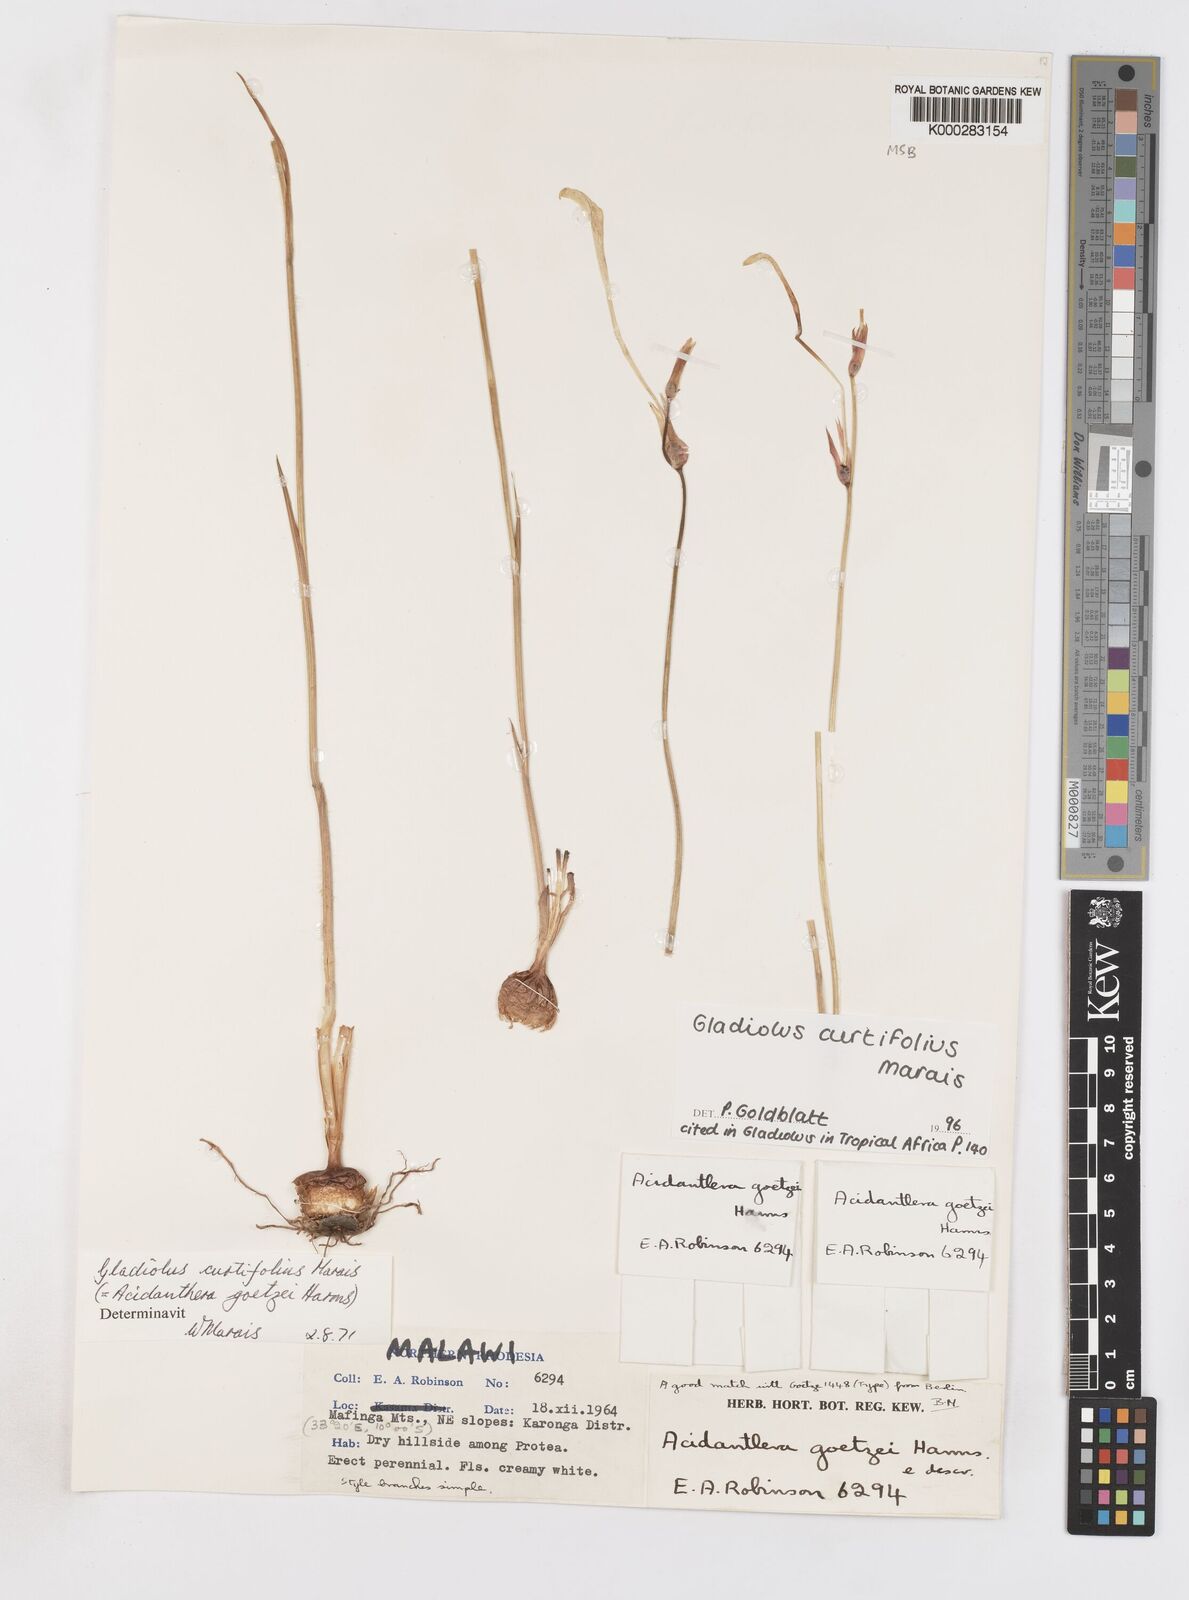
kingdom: Plantae
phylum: Tracheophyta
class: Liliopsida
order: Asparagales
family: Iridaceae
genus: Gladiolus
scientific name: Gladiolus curtifolius
